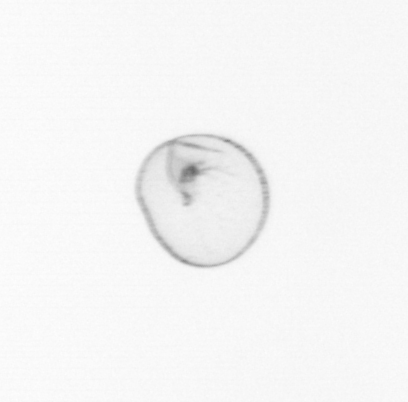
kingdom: Chromista
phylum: Myzozoa
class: Dinophyceae
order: Noctilucales
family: Noctilucaceae
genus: Noctiluca
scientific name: Noctiluca scintillans
